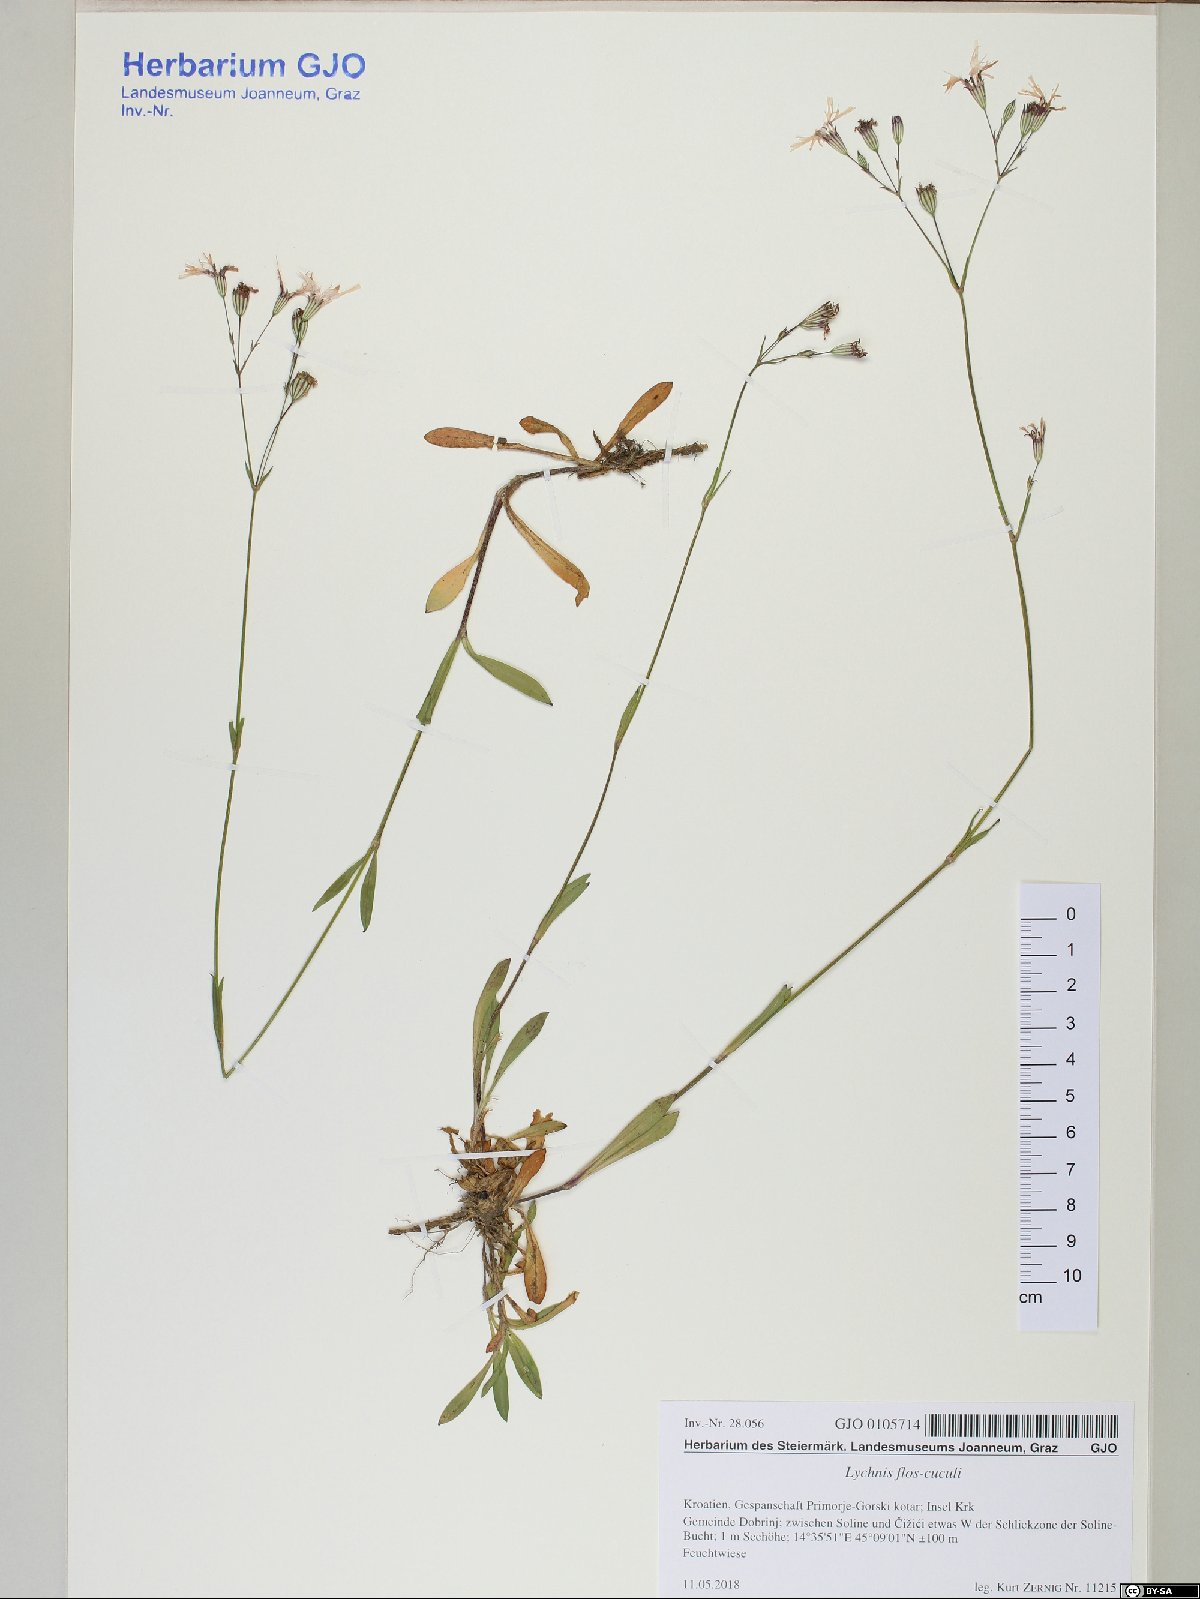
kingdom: Plantae
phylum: Tracheophyta
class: Magnoliopsida
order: Caryophyllales
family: Caryophyllaceae
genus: Silene
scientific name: Silene flos-cuculi
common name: Ragged-robin
